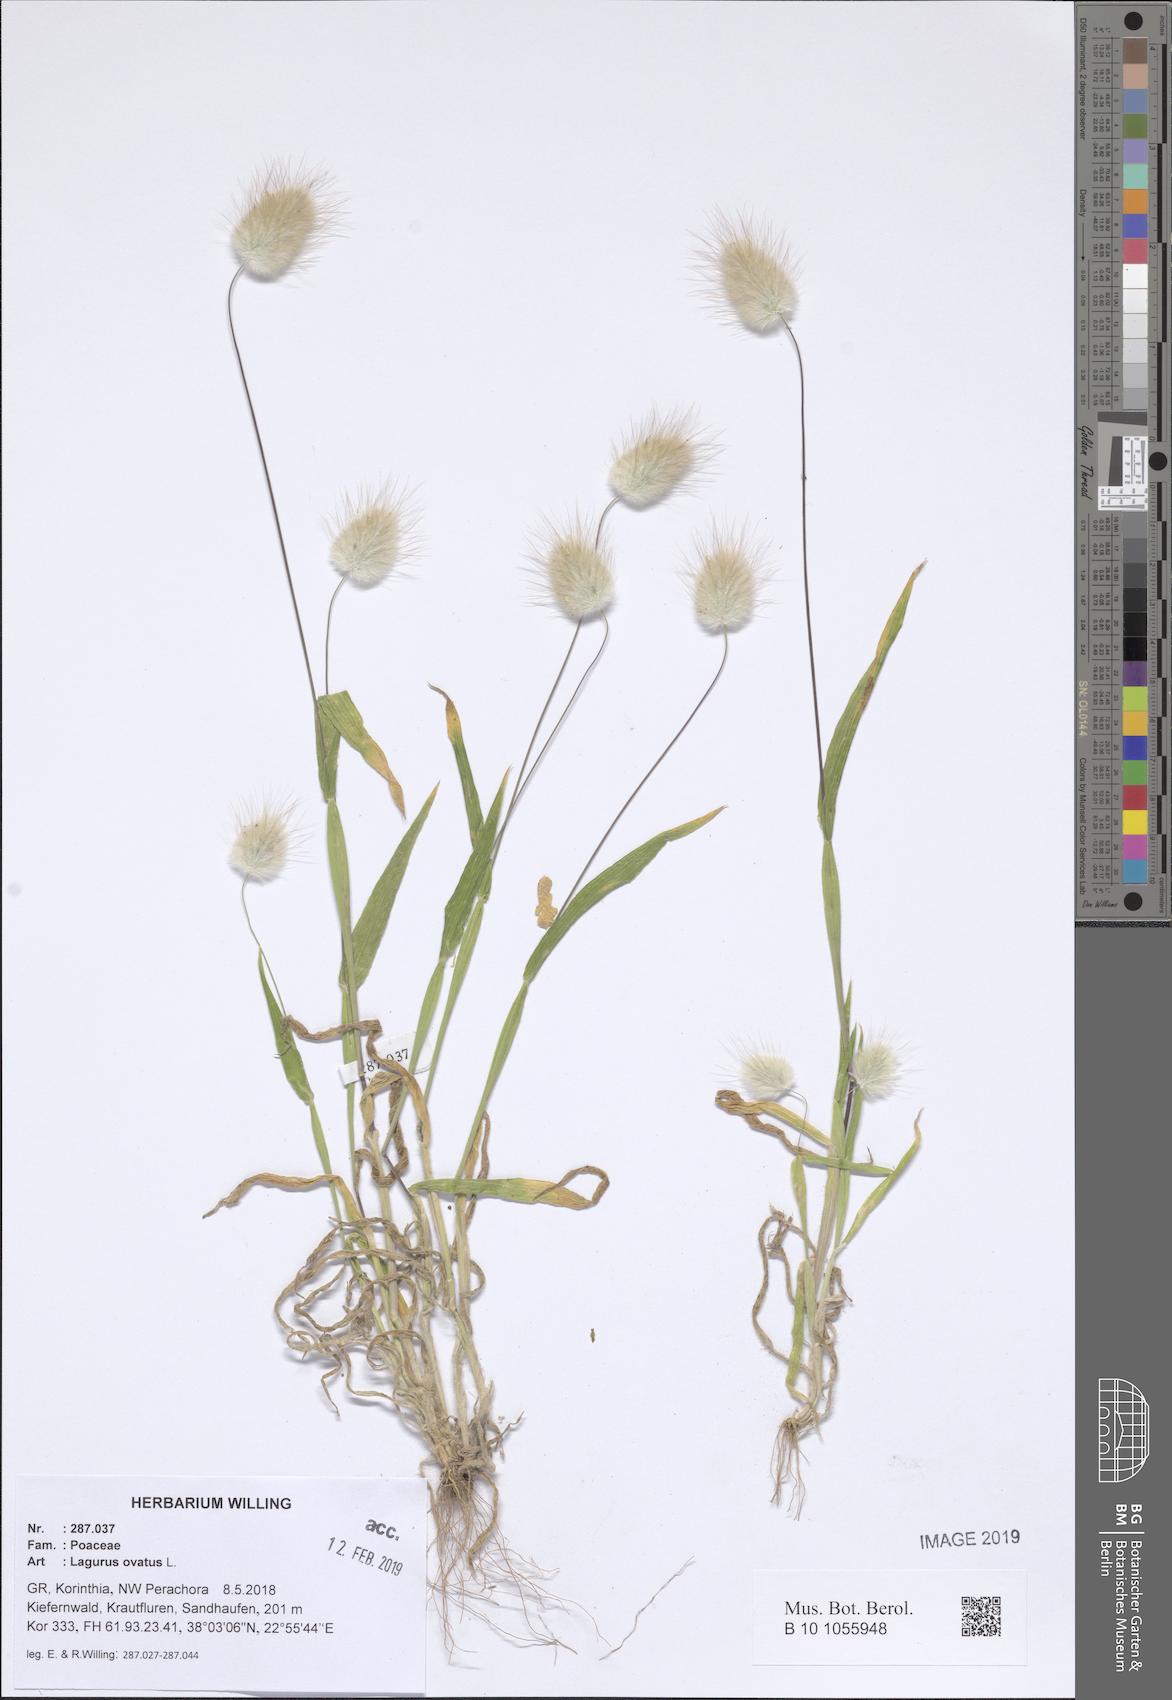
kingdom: Plantae
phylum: Tracheophyta
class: Liliopsida
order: Poales
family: Poaceae
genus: Lagurus
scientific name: Lagurus ovatus
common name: Hare's-tail
